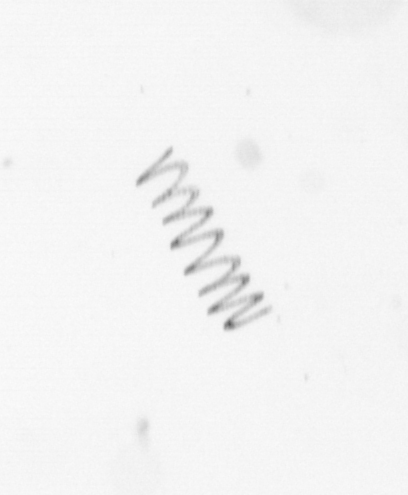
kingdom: Chromista
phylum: Ochrophyta
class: Bacillariophyceae
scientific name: Bacillariophyceae
